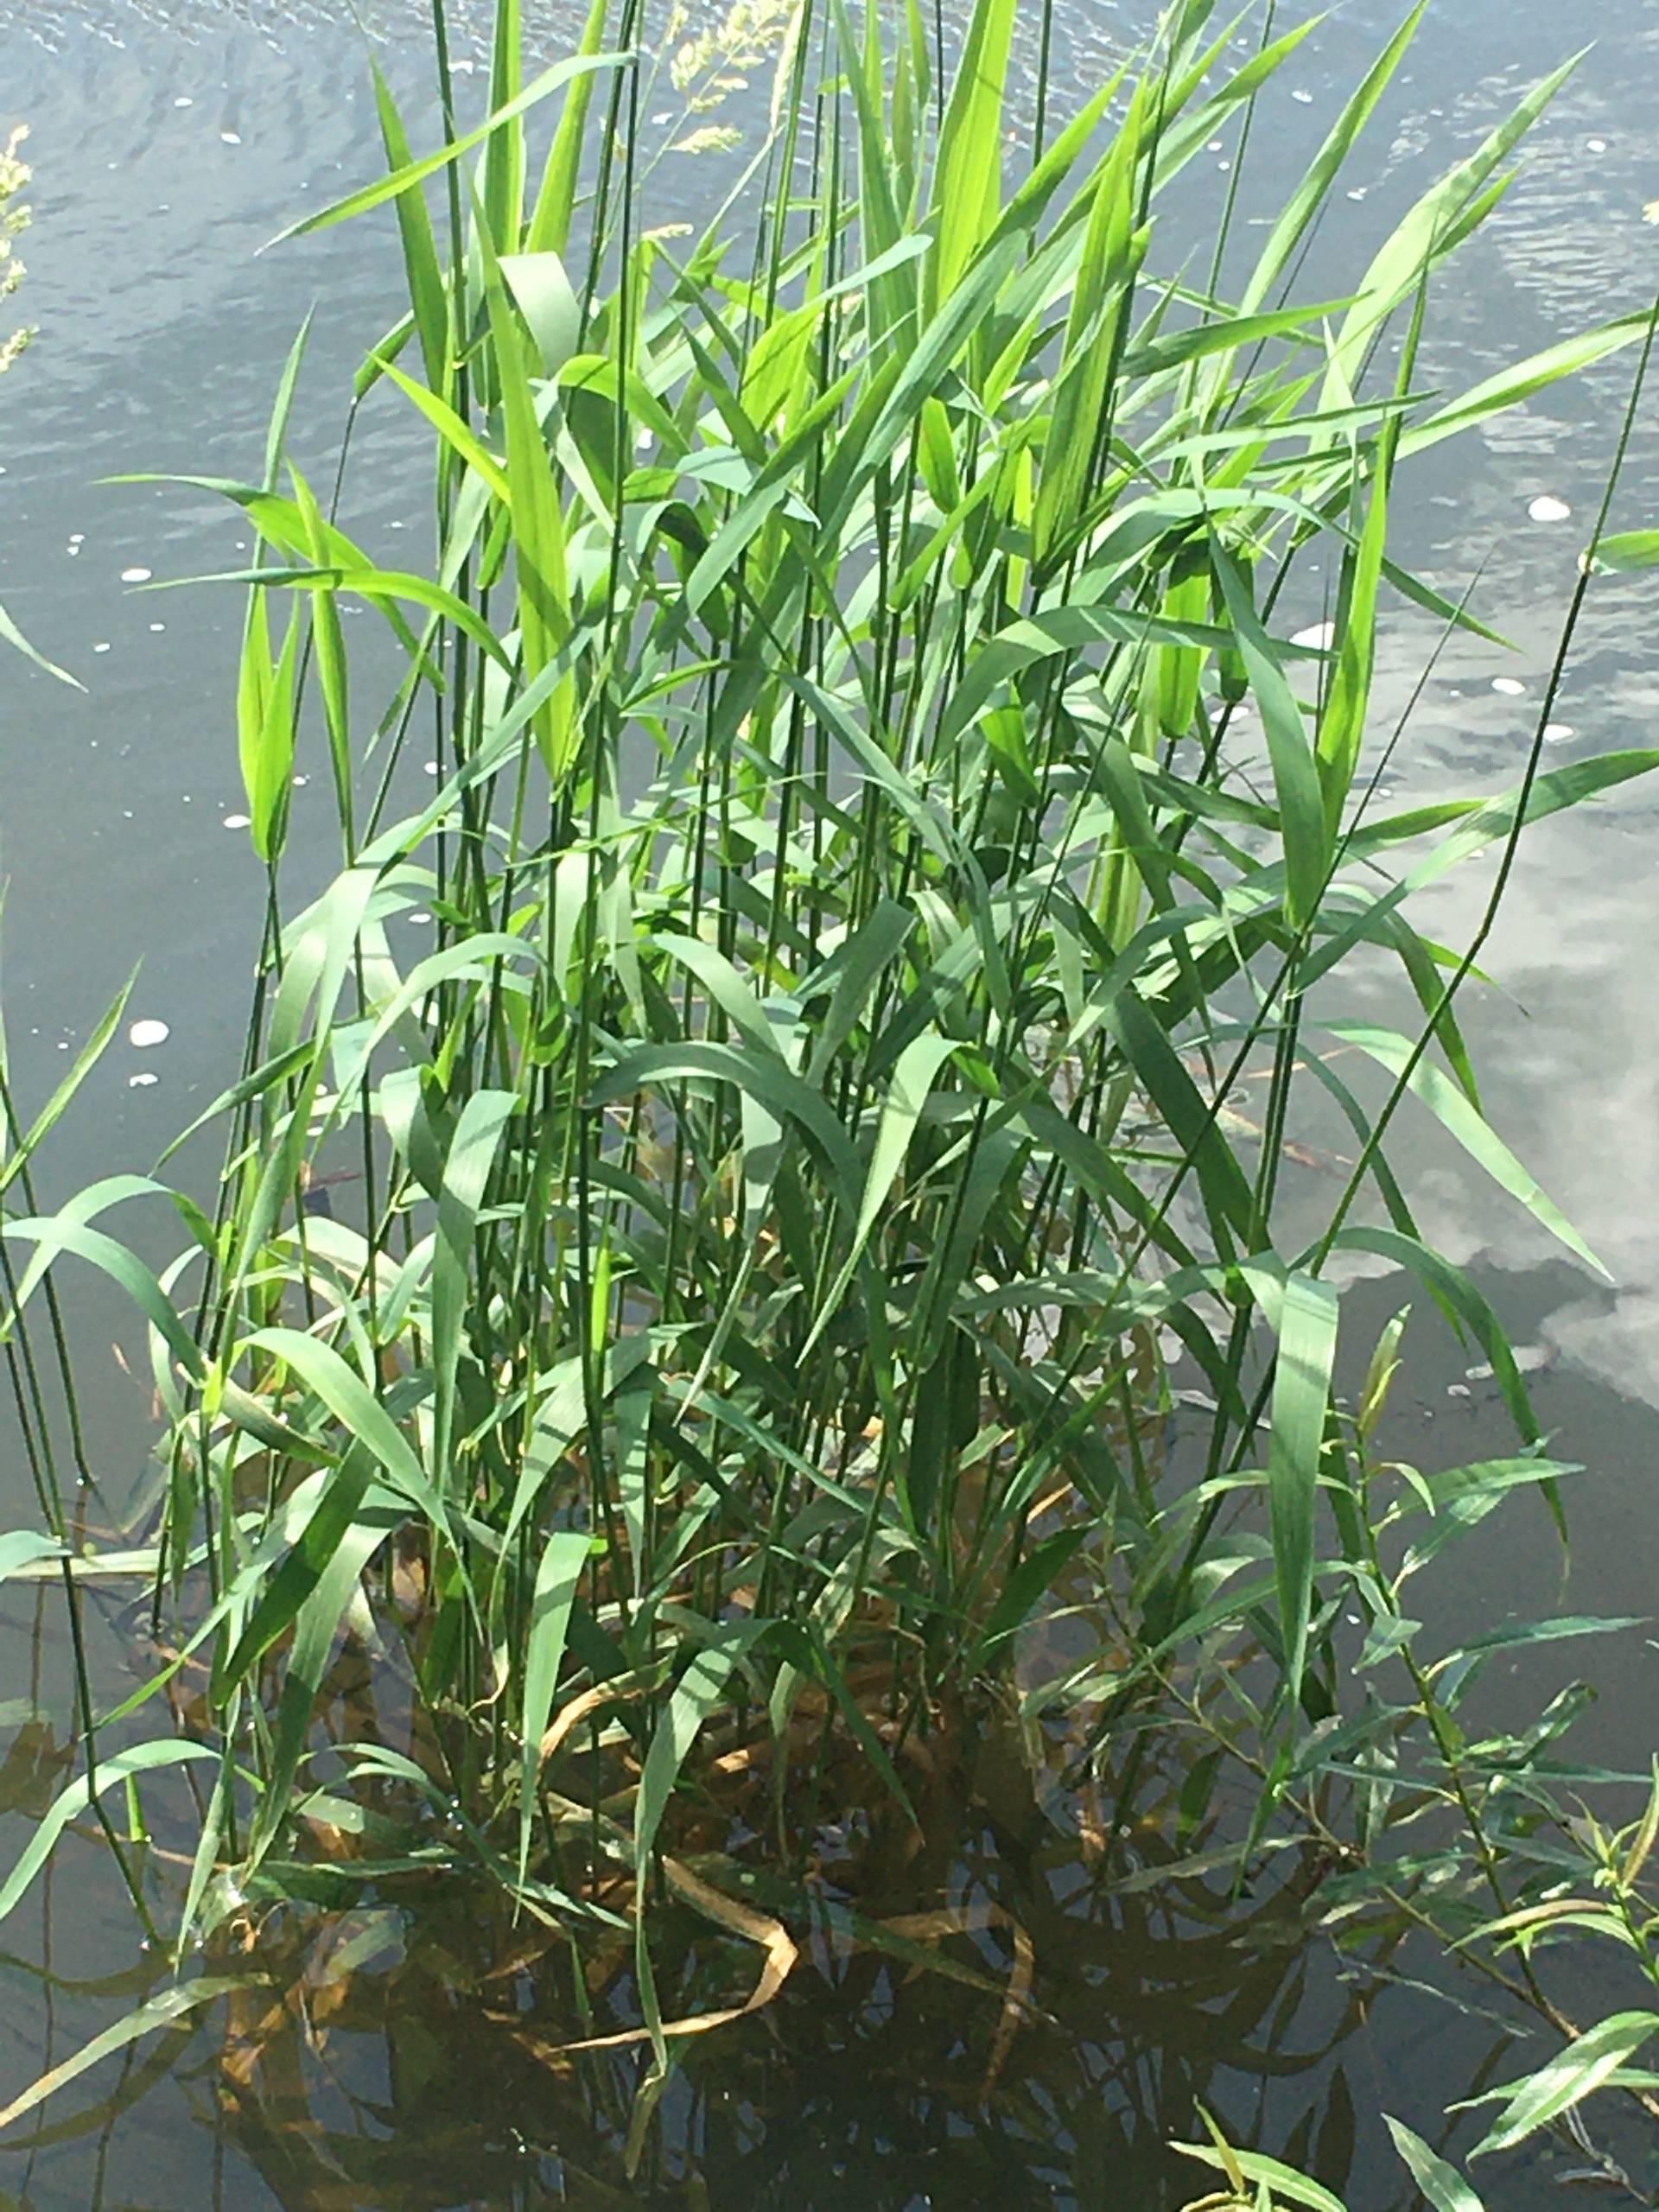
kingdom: Plantae
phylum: Tracheophyta
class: Liliopsida
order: Poales
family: Poaceae
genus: Phalaris
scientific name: Phalaris arundinacea
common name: Rørgræs
